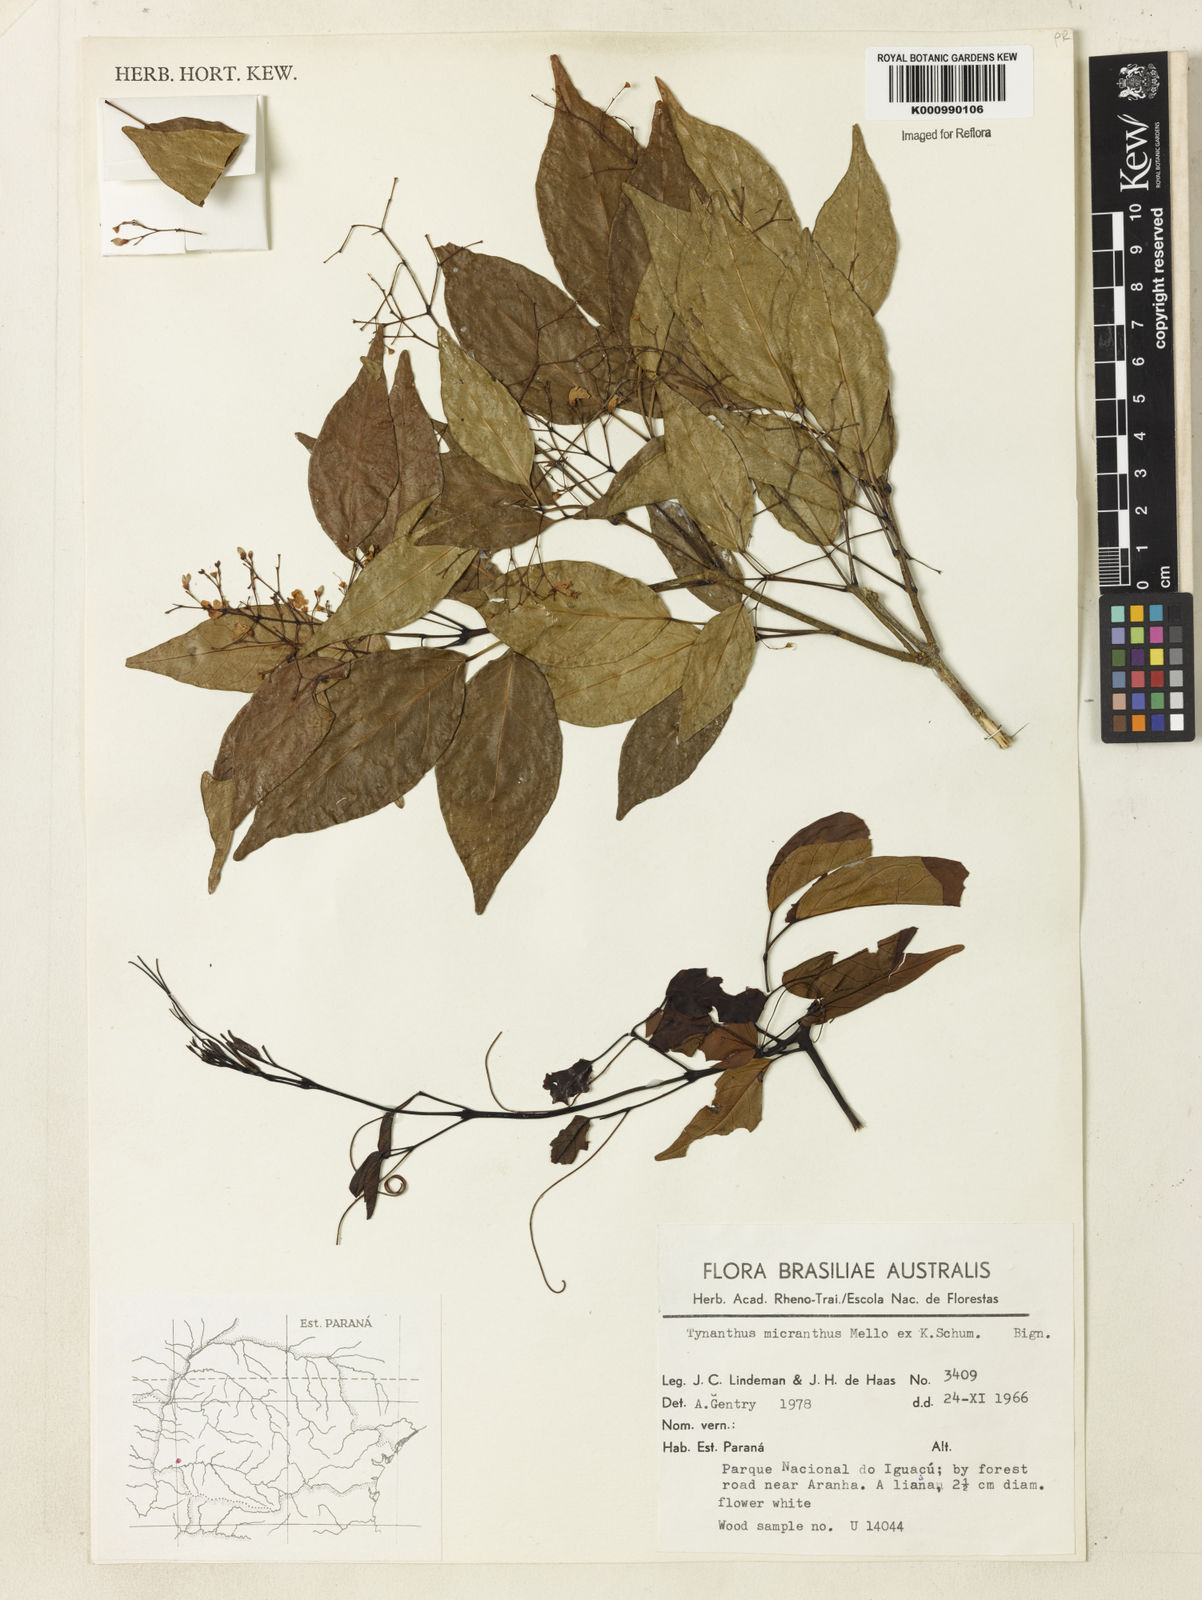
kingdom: Plantae
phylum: Tracheophyta
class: Magnoliopsida
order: Lamiales
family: Bignoniaceae
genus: Tynanthus
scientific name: Tynanthus
